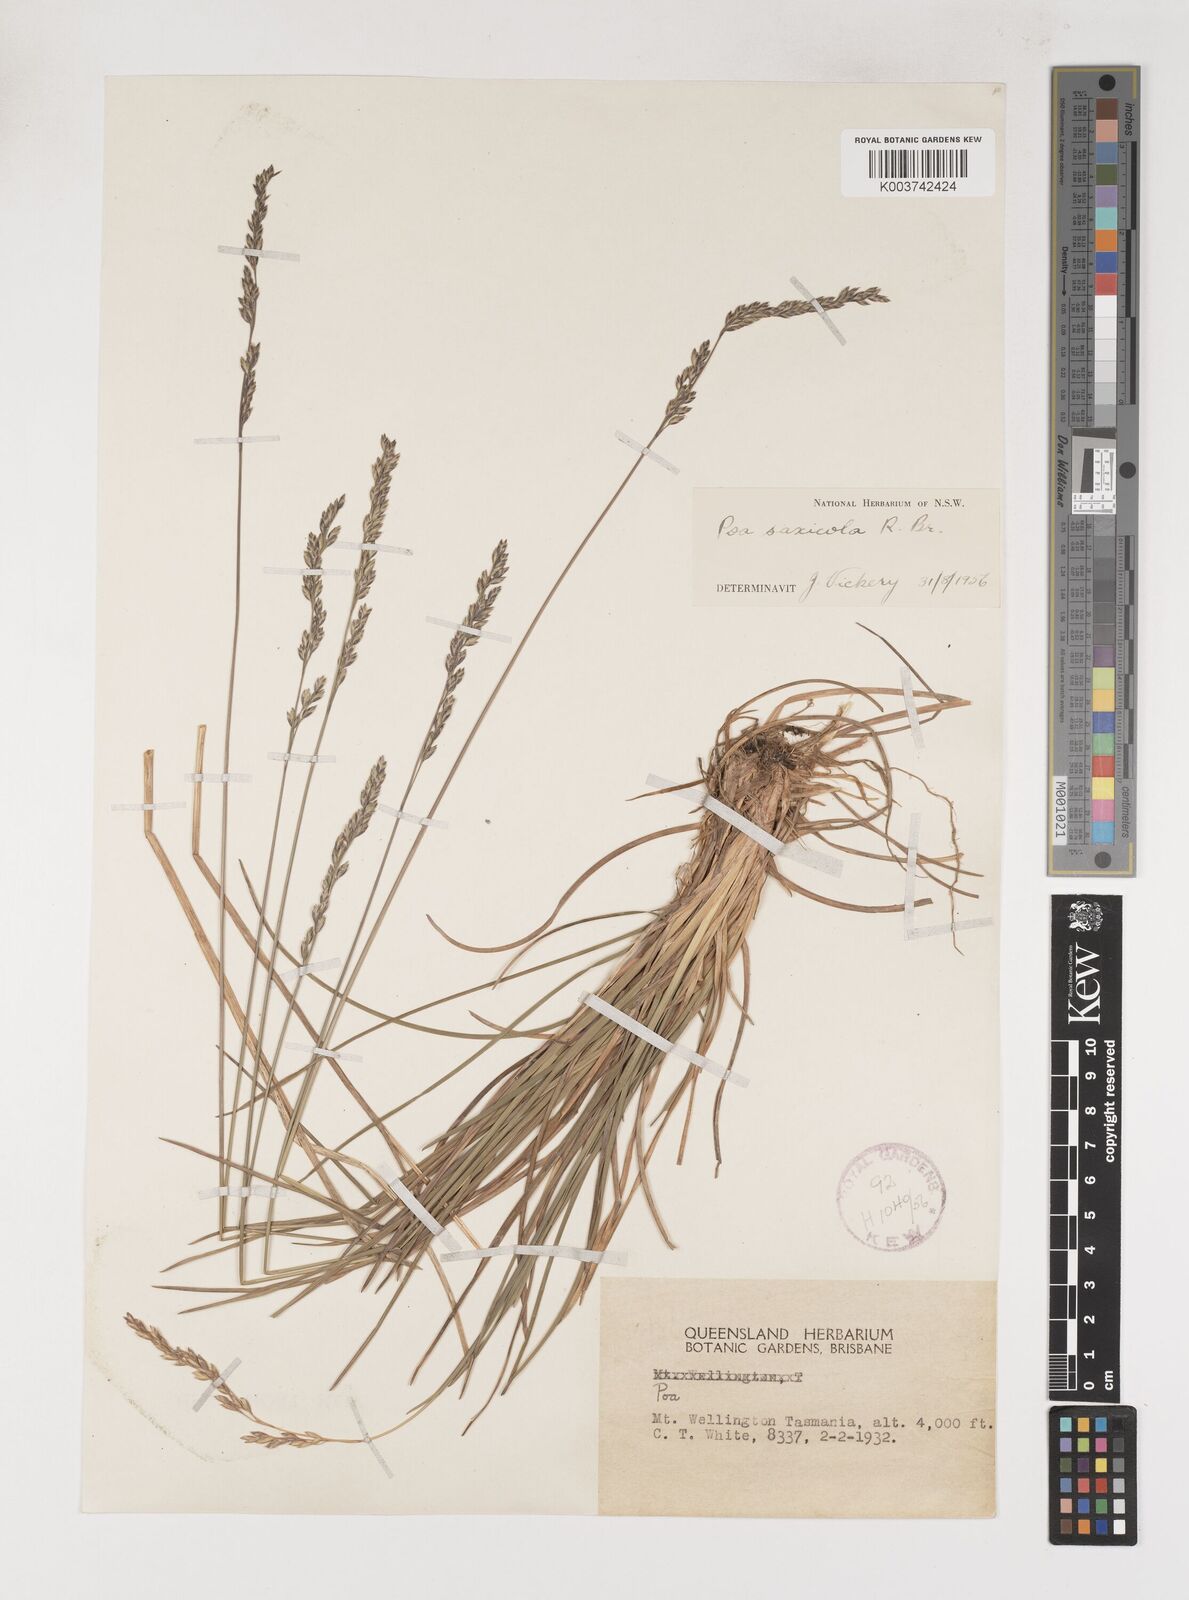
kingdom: Plantae
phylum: Tracheophyta
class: Liliopsida
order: Poales
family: Poaceae
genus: Saxipoa
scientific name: Saxipoa saxicola
